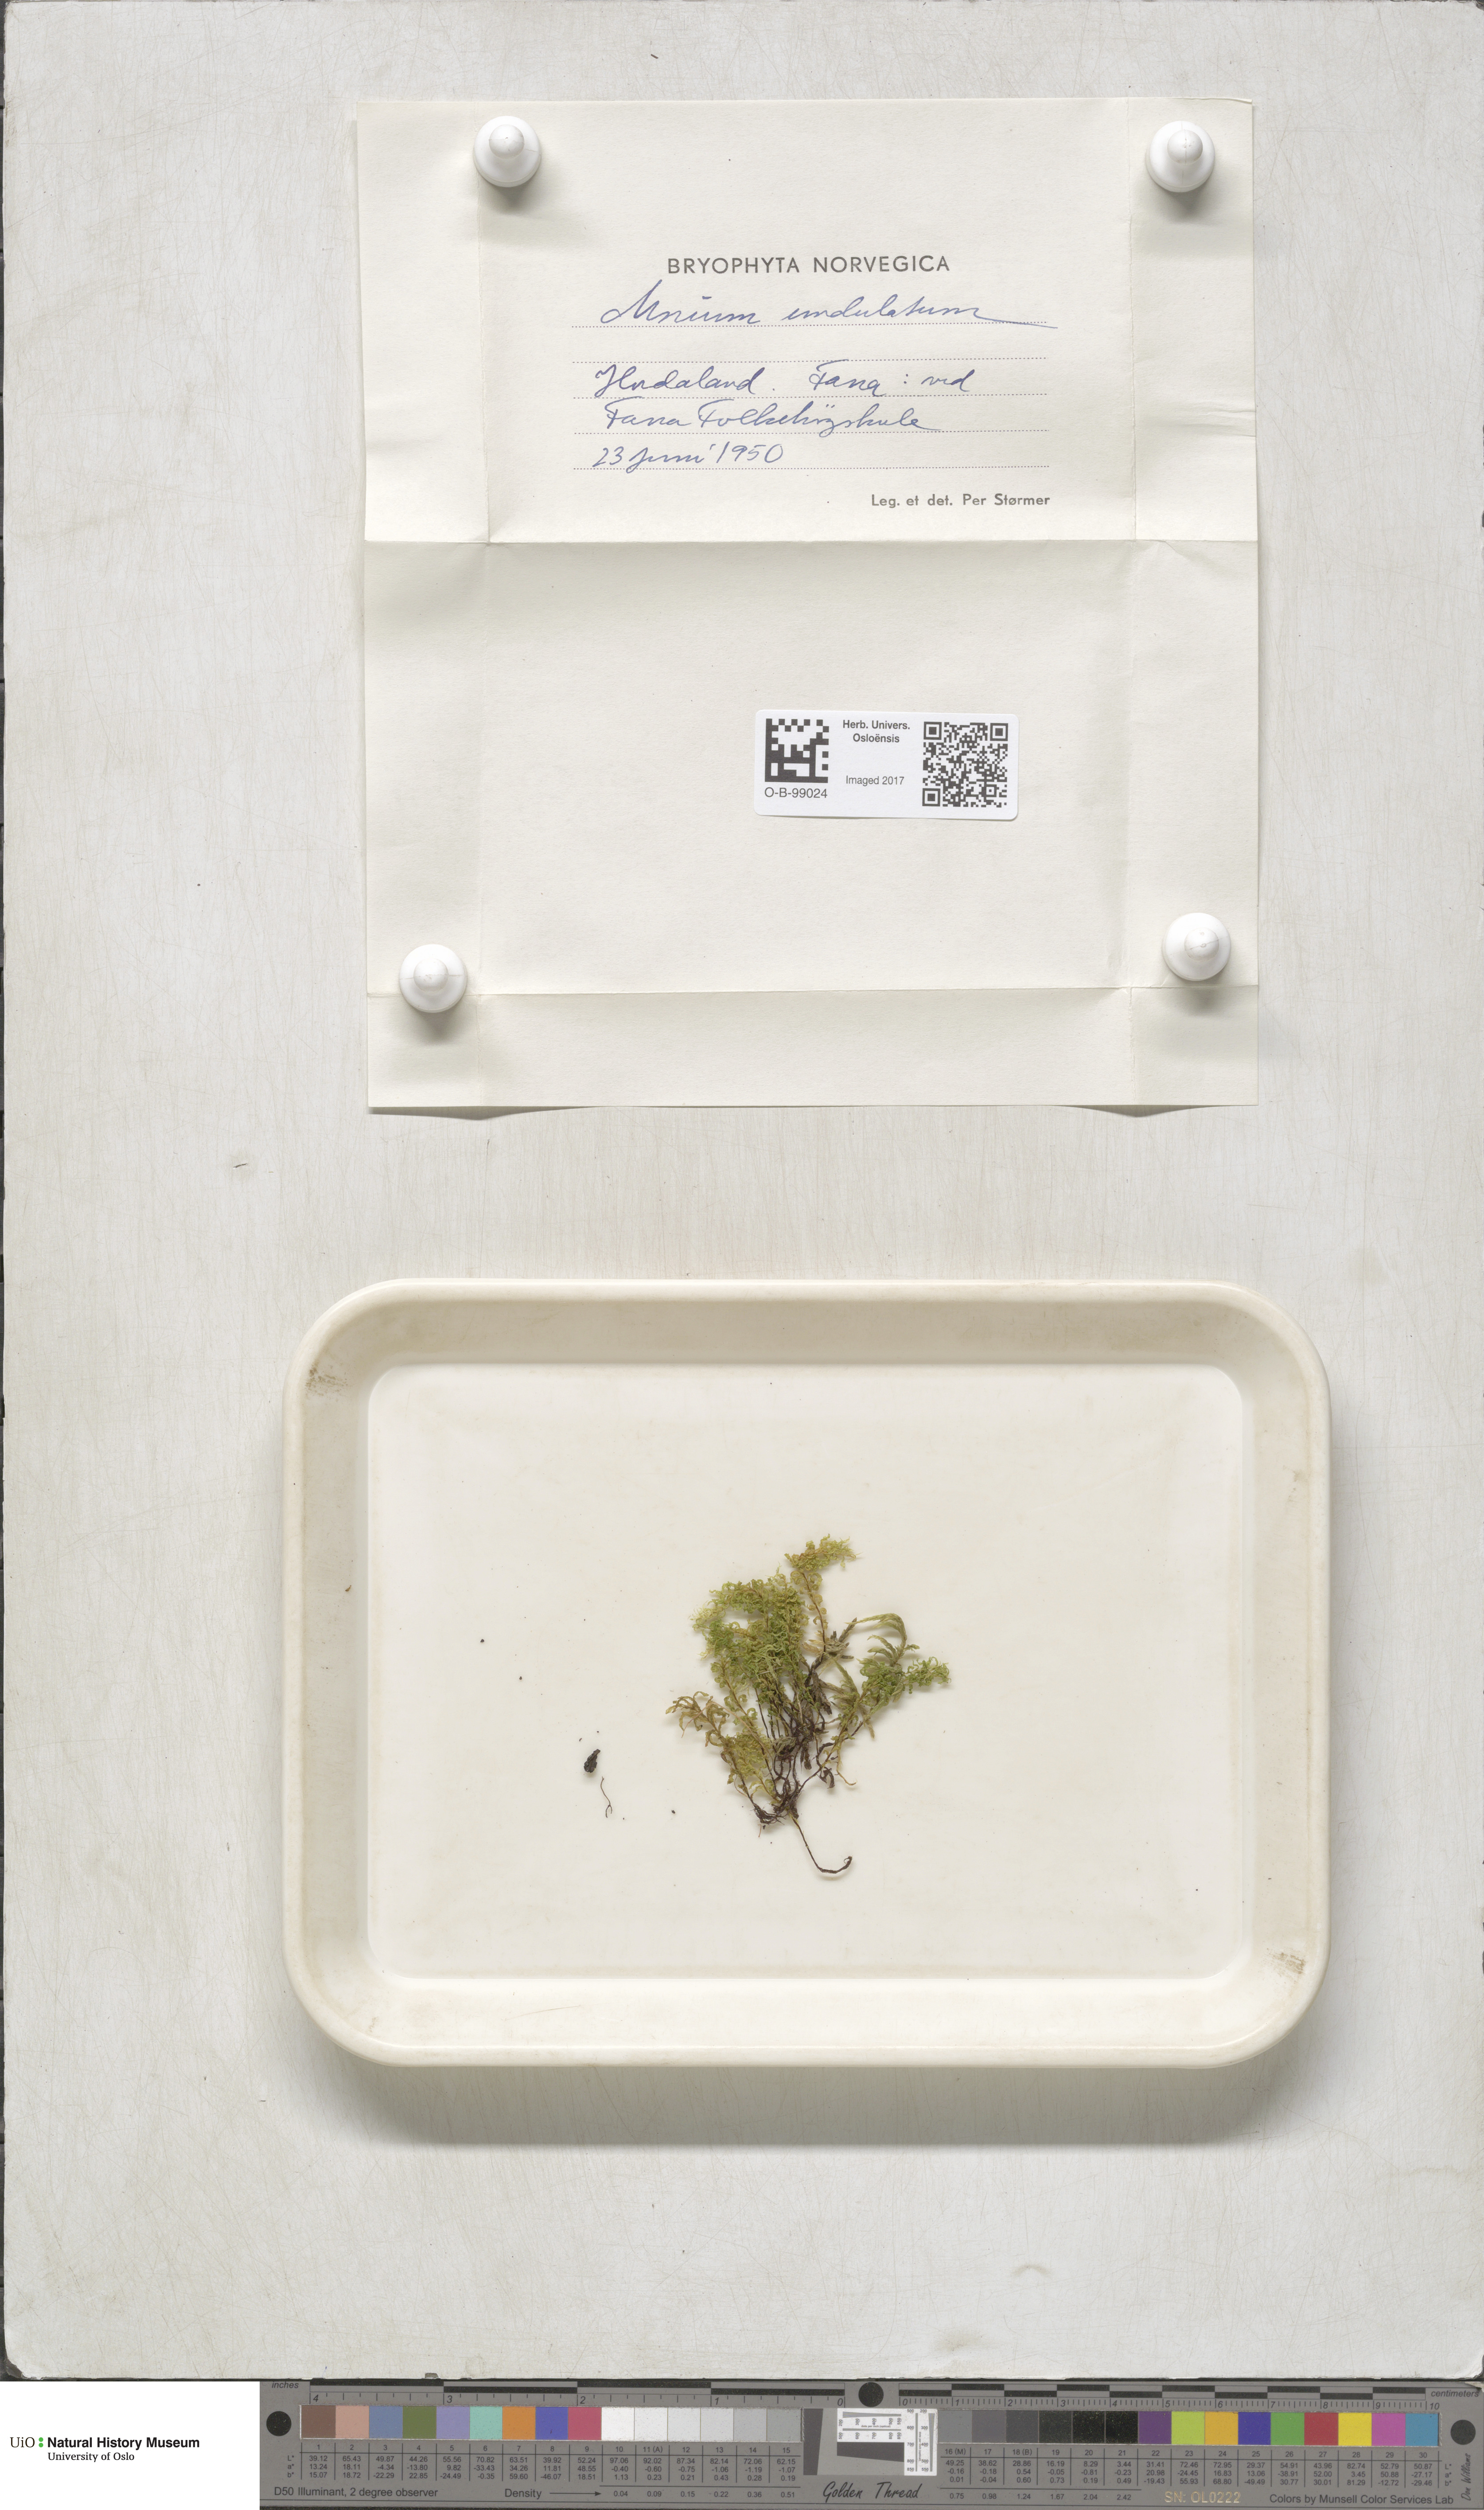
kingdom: Plantae
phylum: Bryophyta
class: Bryopsida
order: Bryales
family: Mniaceae
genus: Plagiomnium
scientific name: Plagiomnium undulatum
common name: Hart's-tongue thyme-moss
